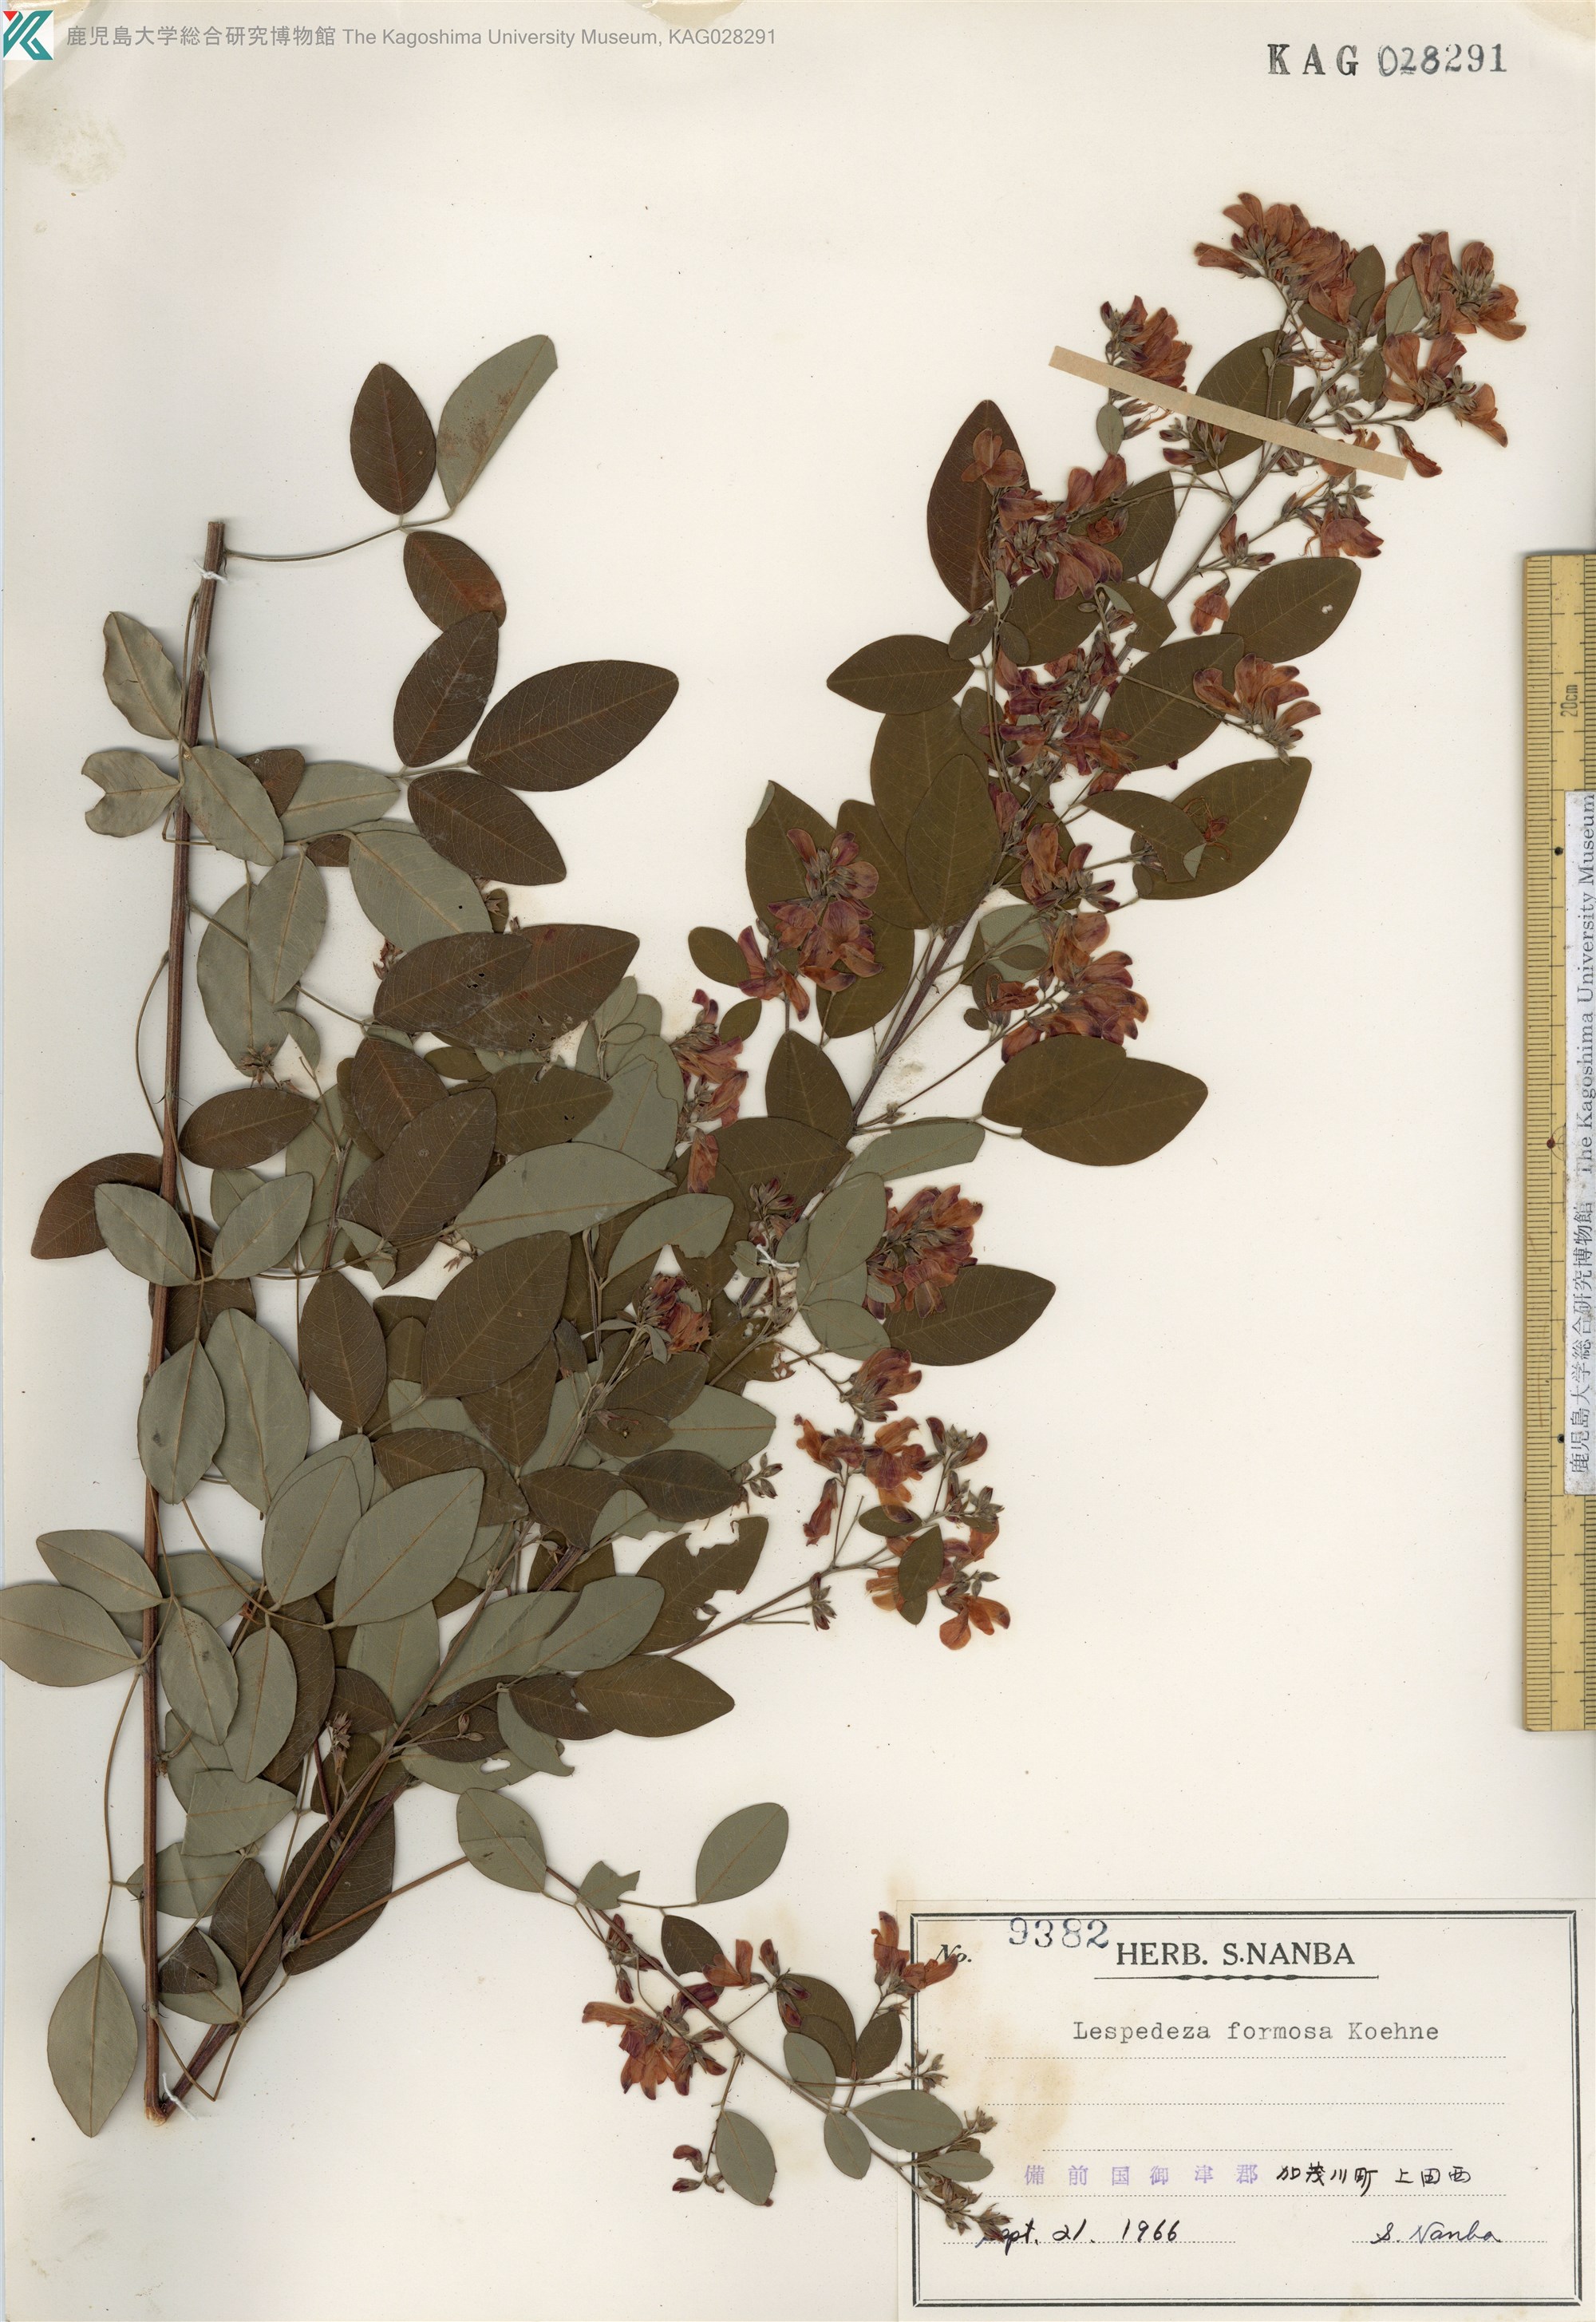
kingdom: Plantae
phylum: Tracheophyta
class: Magnoliopsida
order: Fabales
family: Fabaceae
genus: Lespedeza
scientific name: Lespedeza thunbergii
